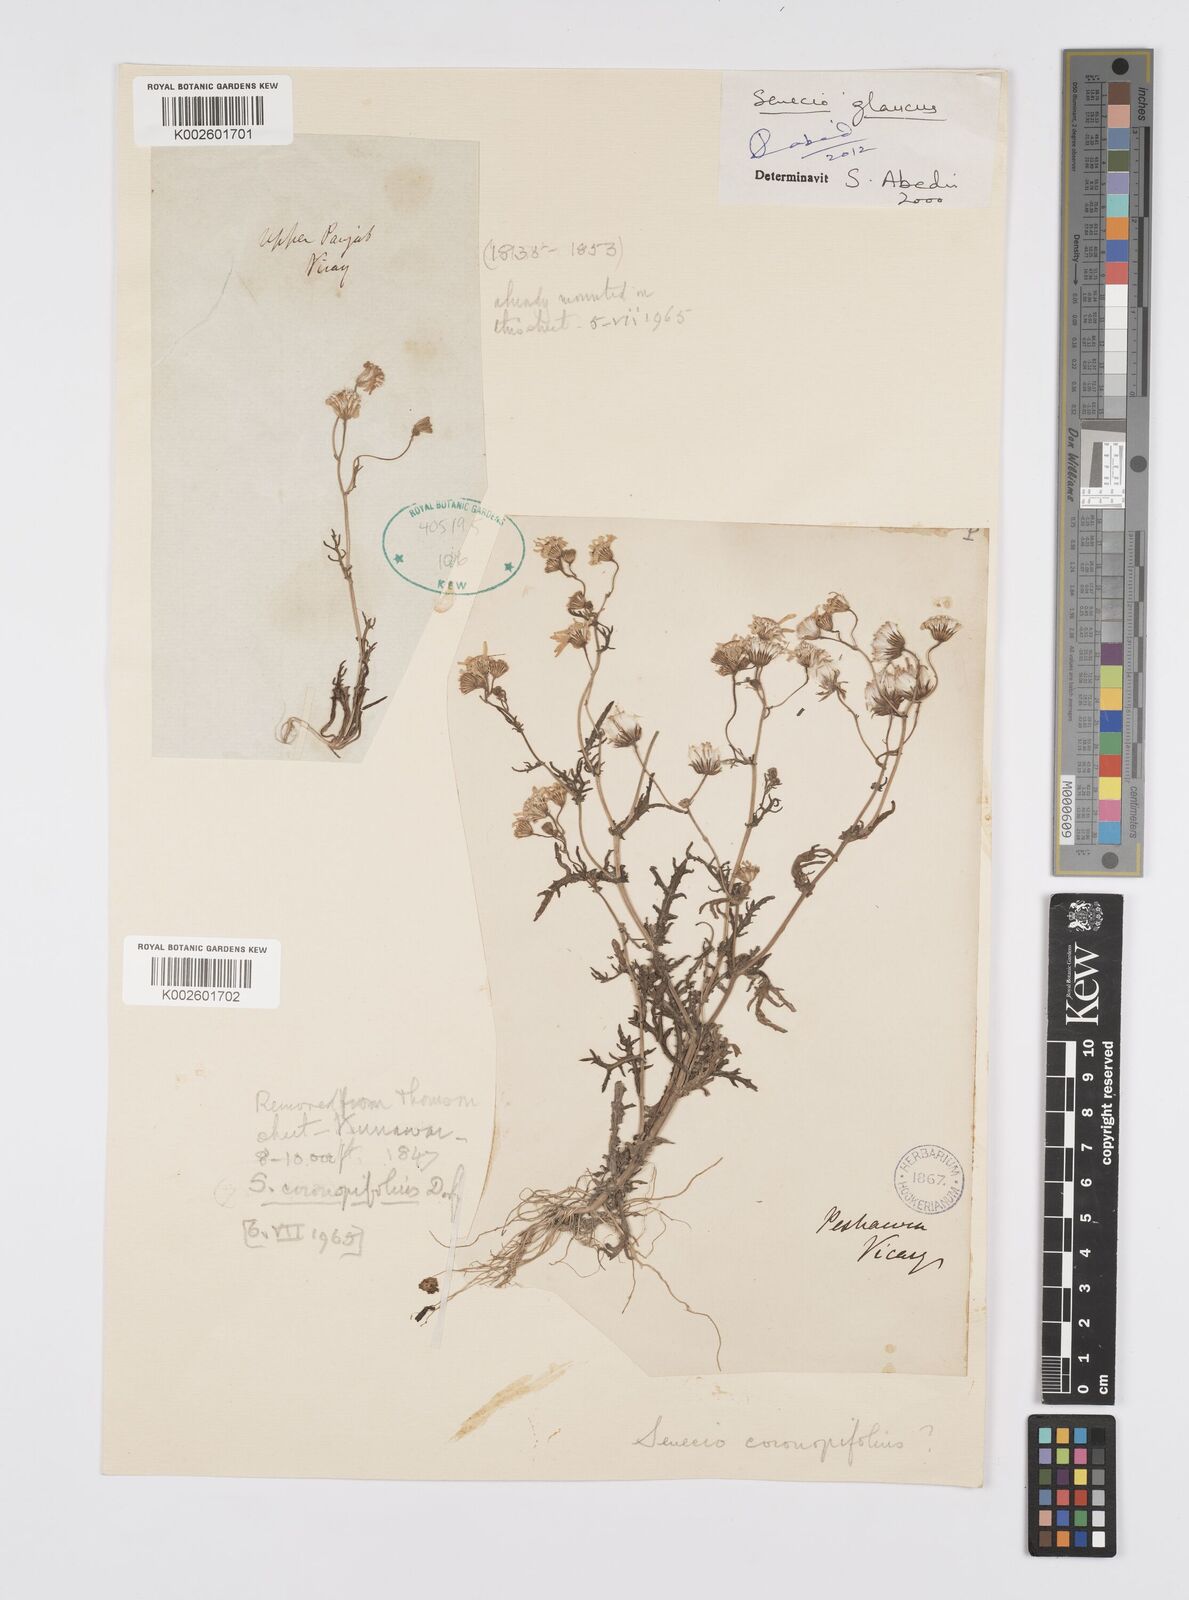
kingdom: Plantae
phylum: Tracheophyta
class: Magnoliopsida
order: Asterales
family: Asteraceae
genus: Senecio
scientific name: Senecio glaucus
